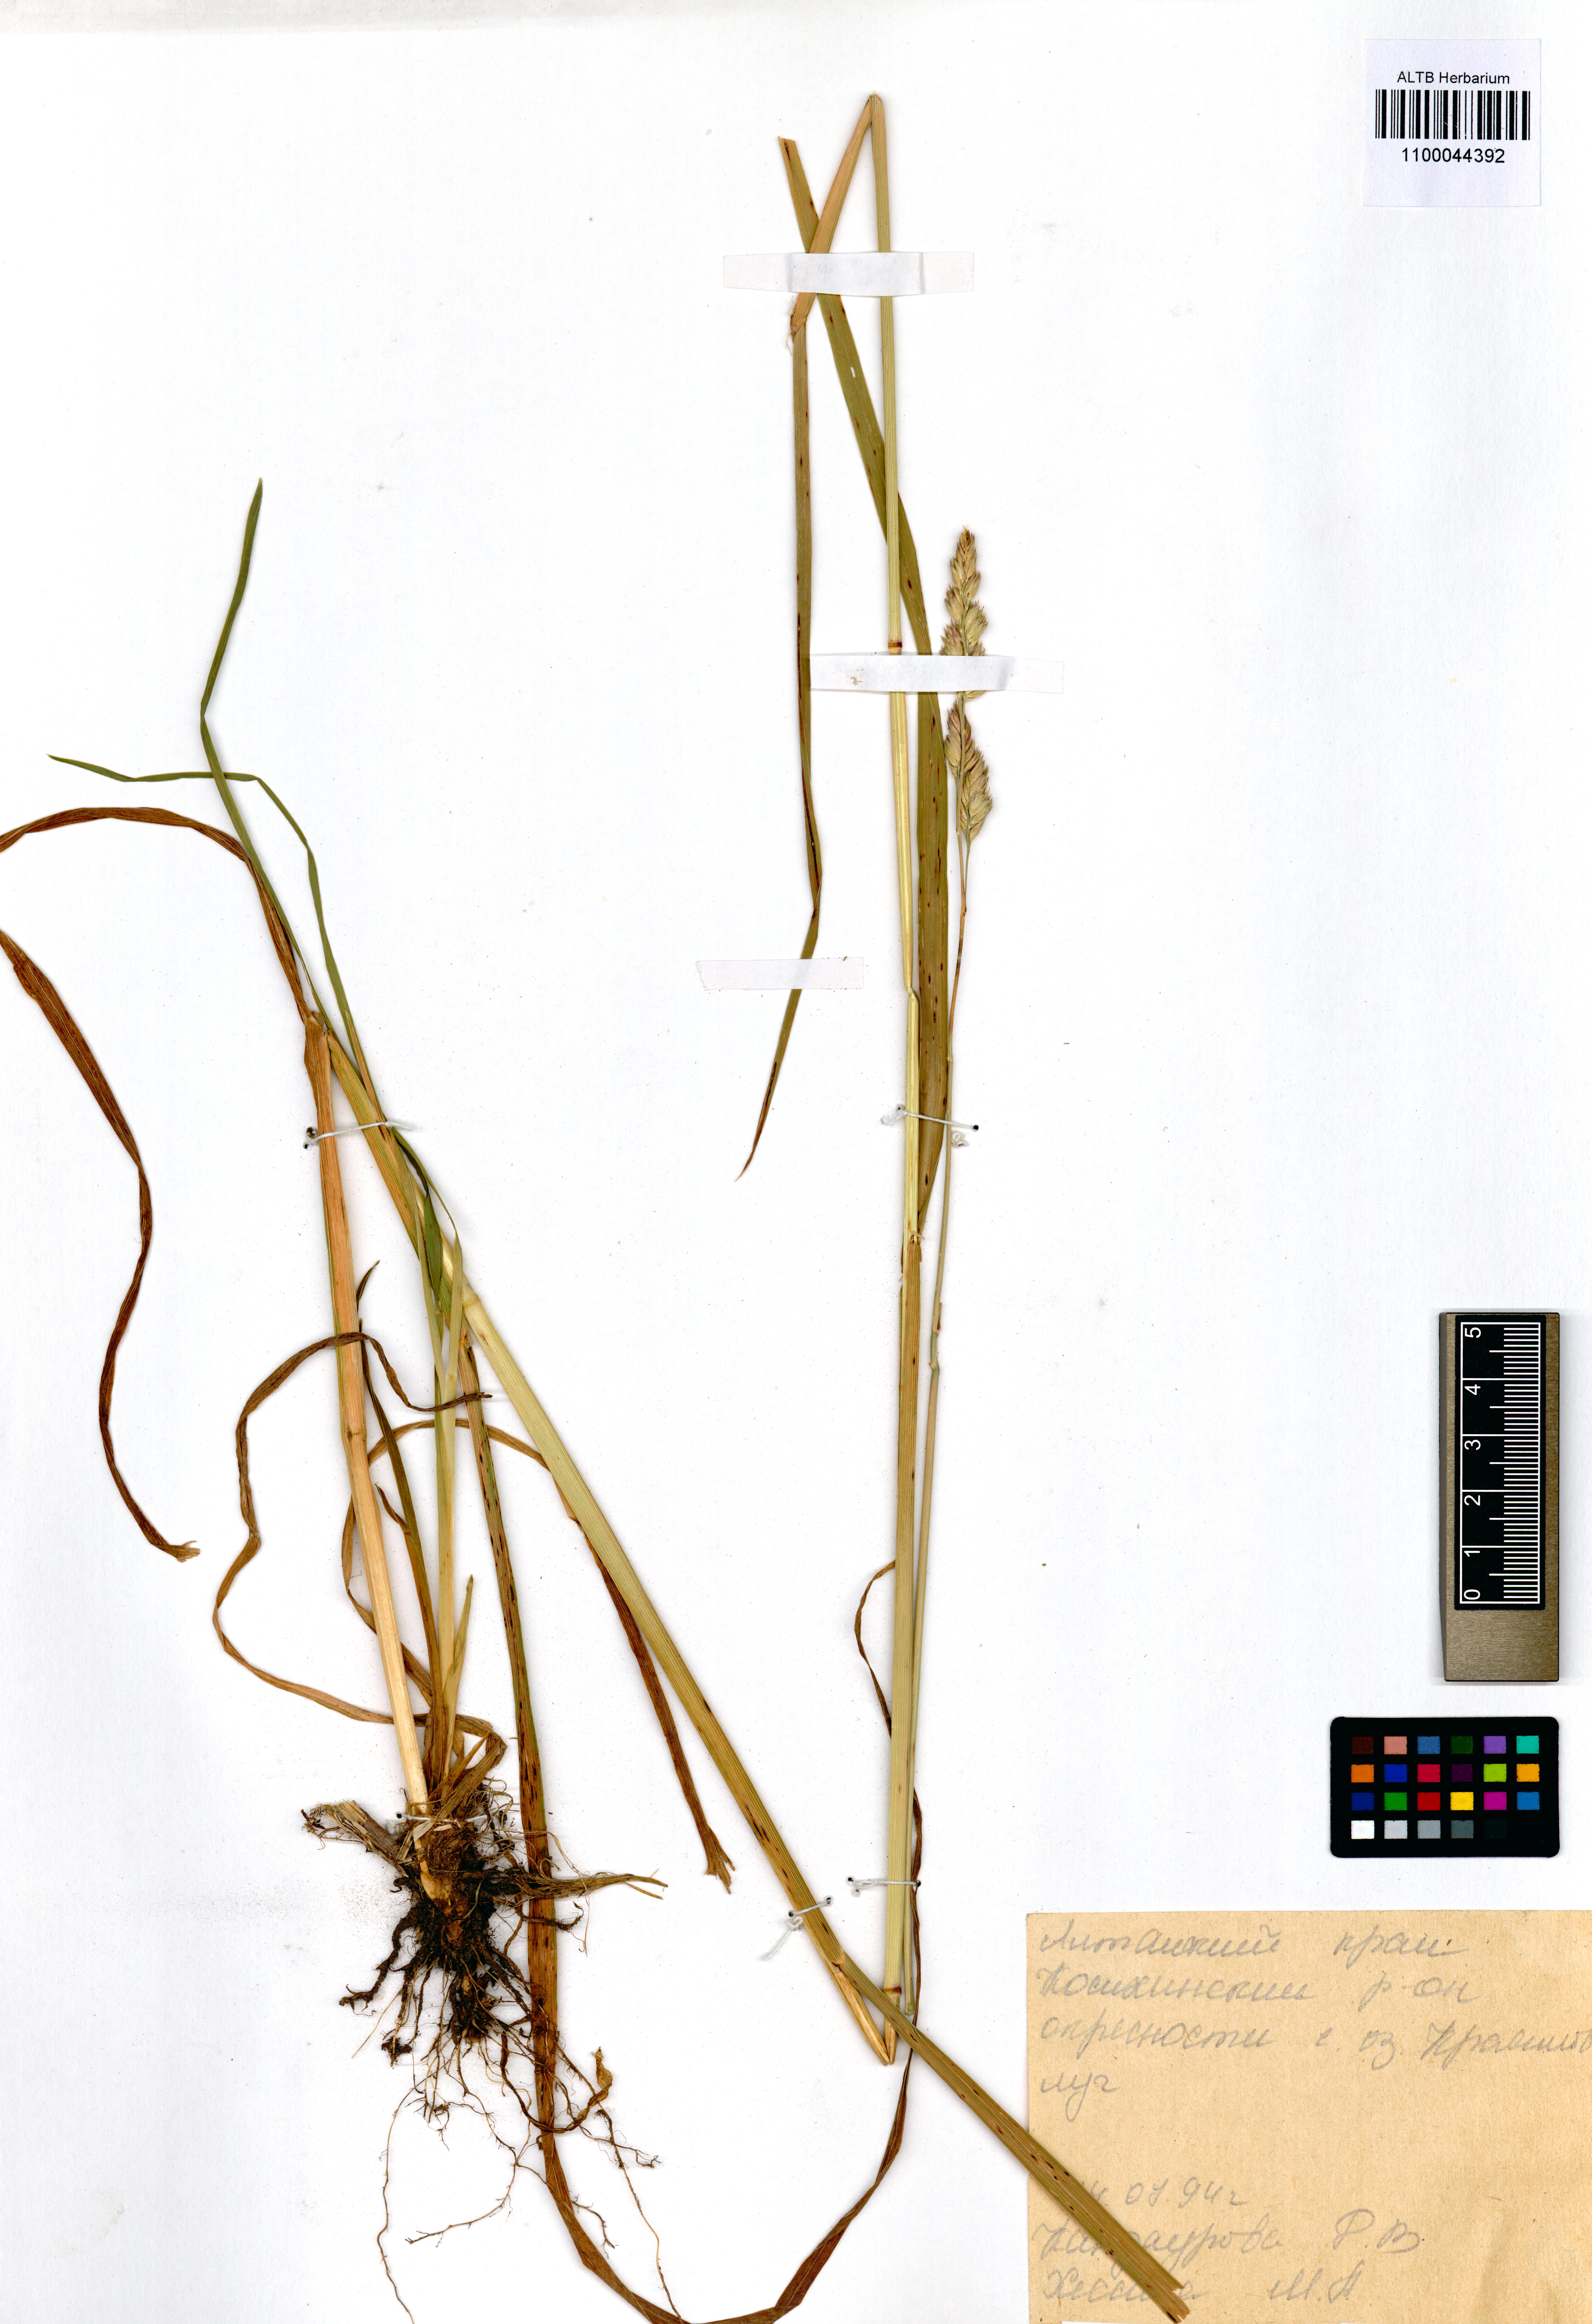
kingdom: Plantae
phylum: Tracheophyta
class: Liliopsida
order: Poales
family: Poaceae
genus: Dactylis
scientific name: Dactylis glomerata
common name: Orchardgrass
